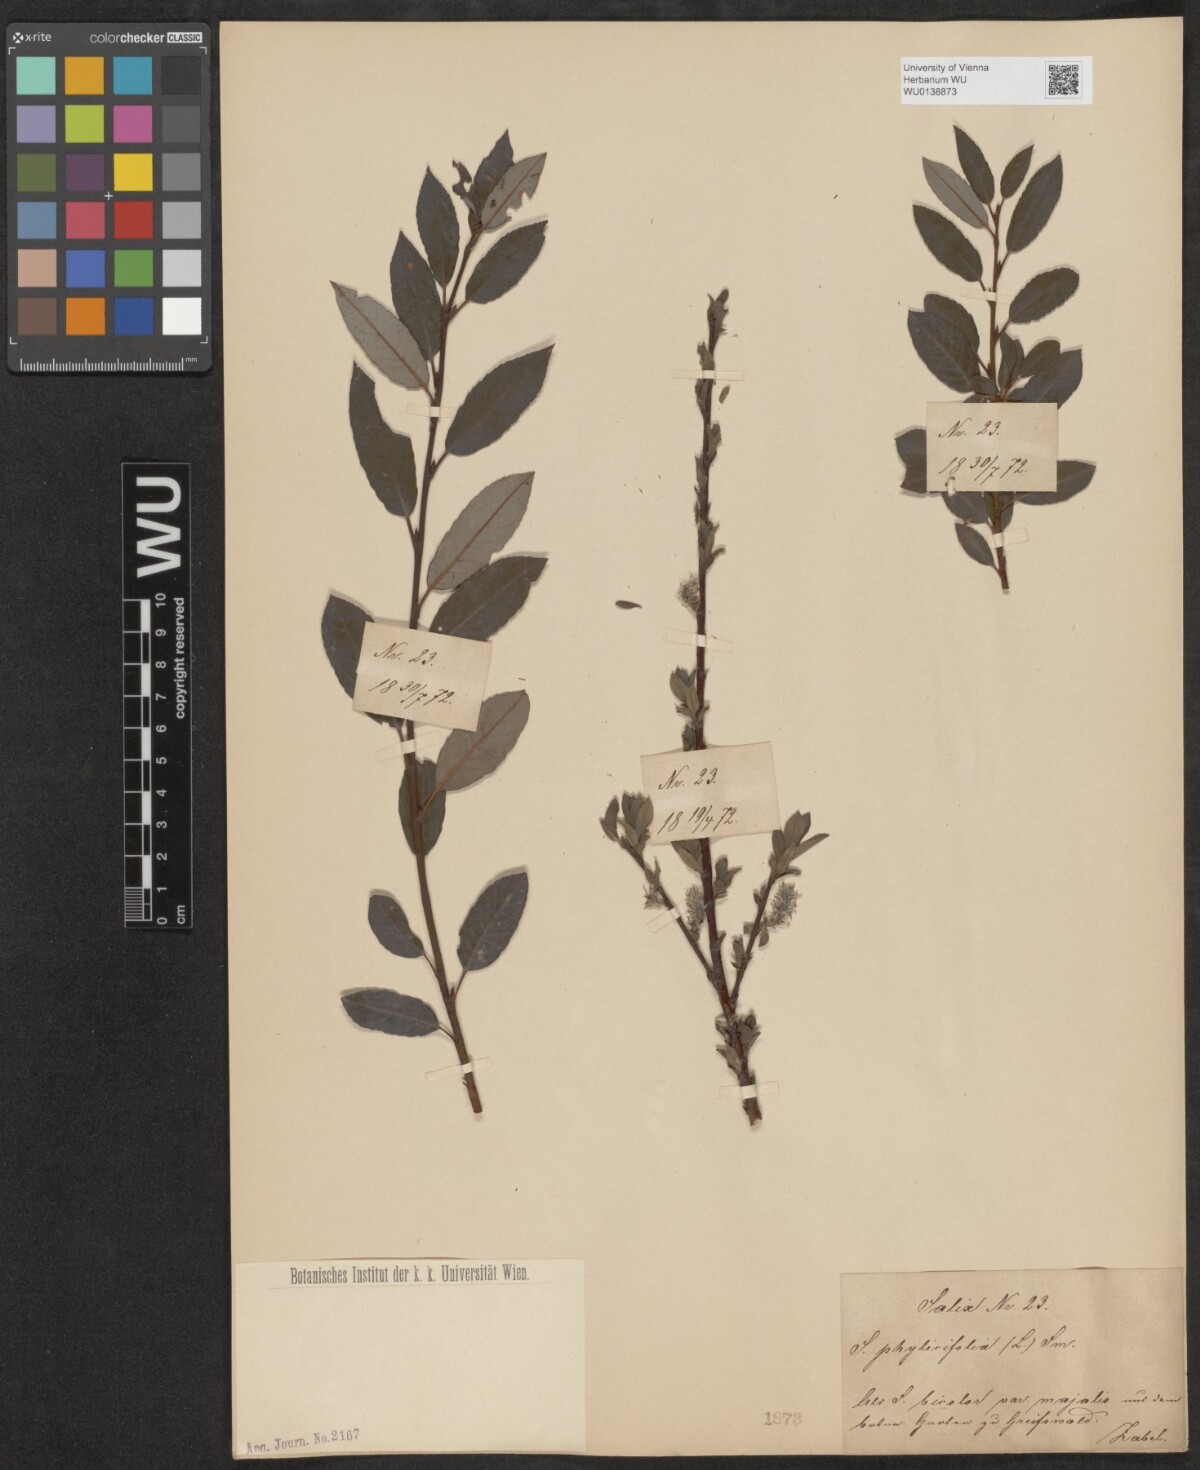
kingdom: Plantae
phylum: Tracheophyta
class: Magnoliopsida
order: Malpighiales
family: Salicaceae
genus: Salix
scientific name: Salix phylicifolia
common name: Tea-leaved willow
